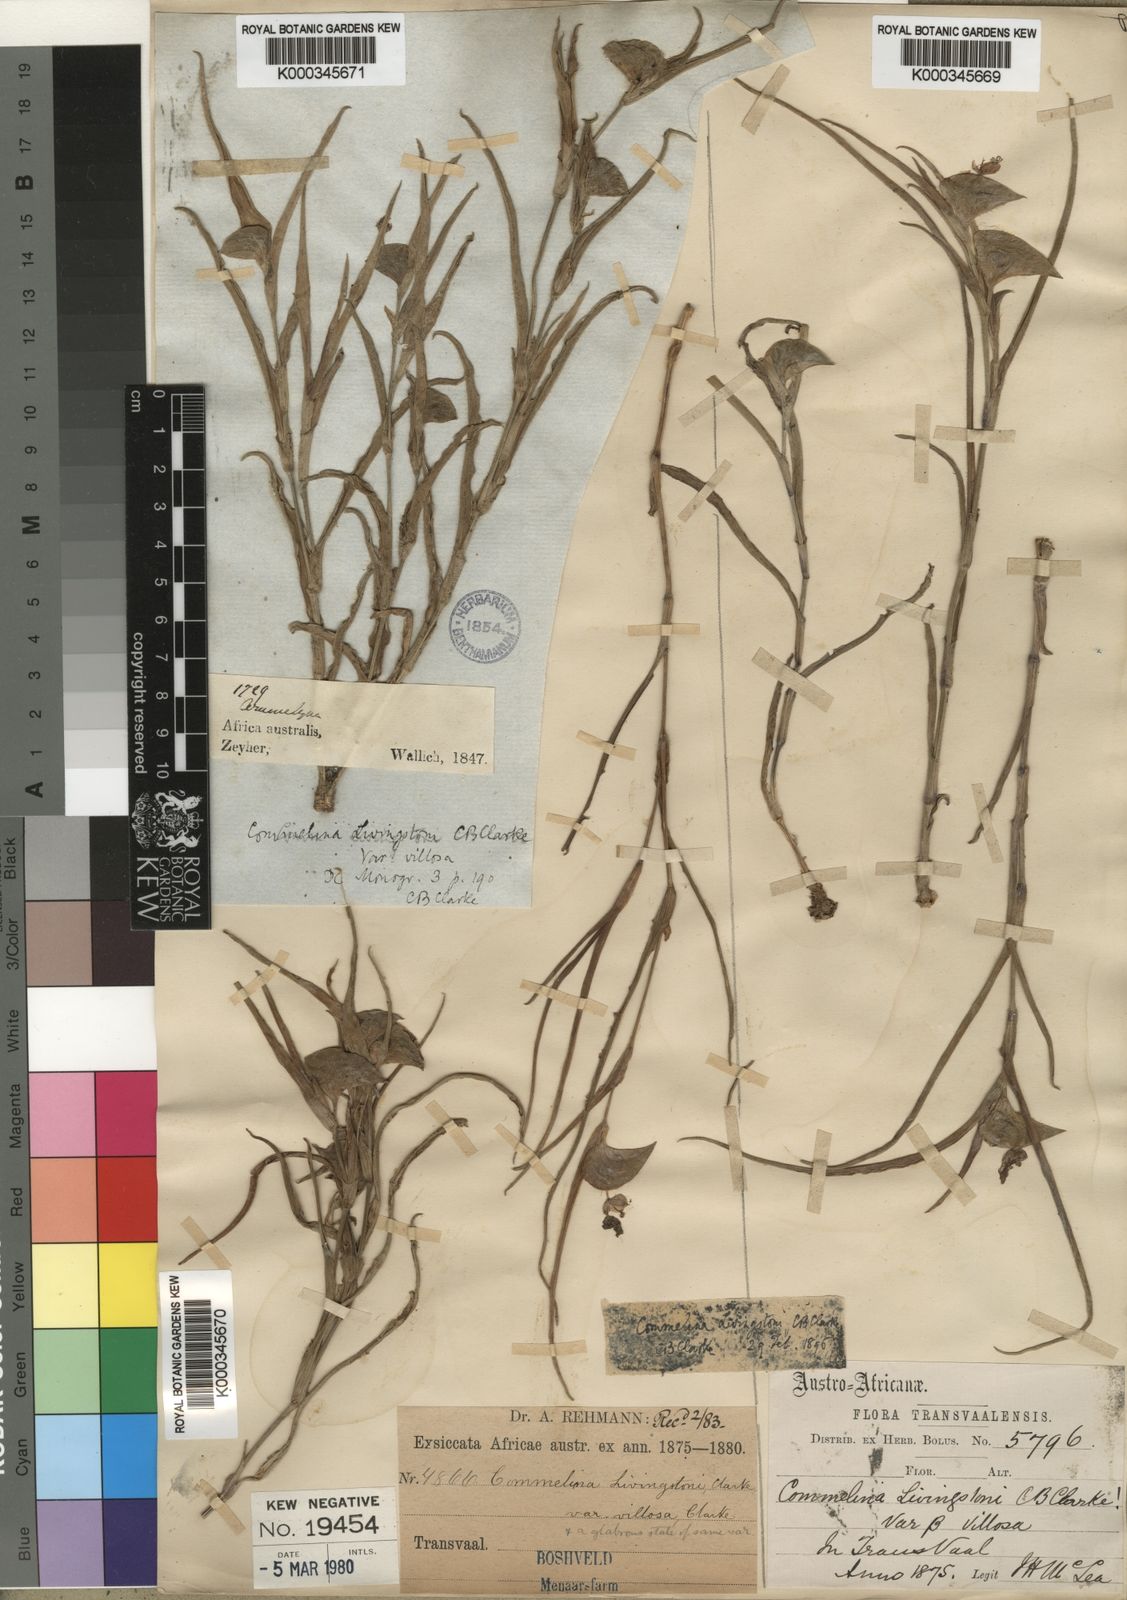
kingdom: Plantae
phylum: Tracheophyta
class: Liliopsida
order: Commelinales
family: Commelinaceae
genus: Commelina
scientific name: Commelina erecta
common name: Blousel blommetjie
